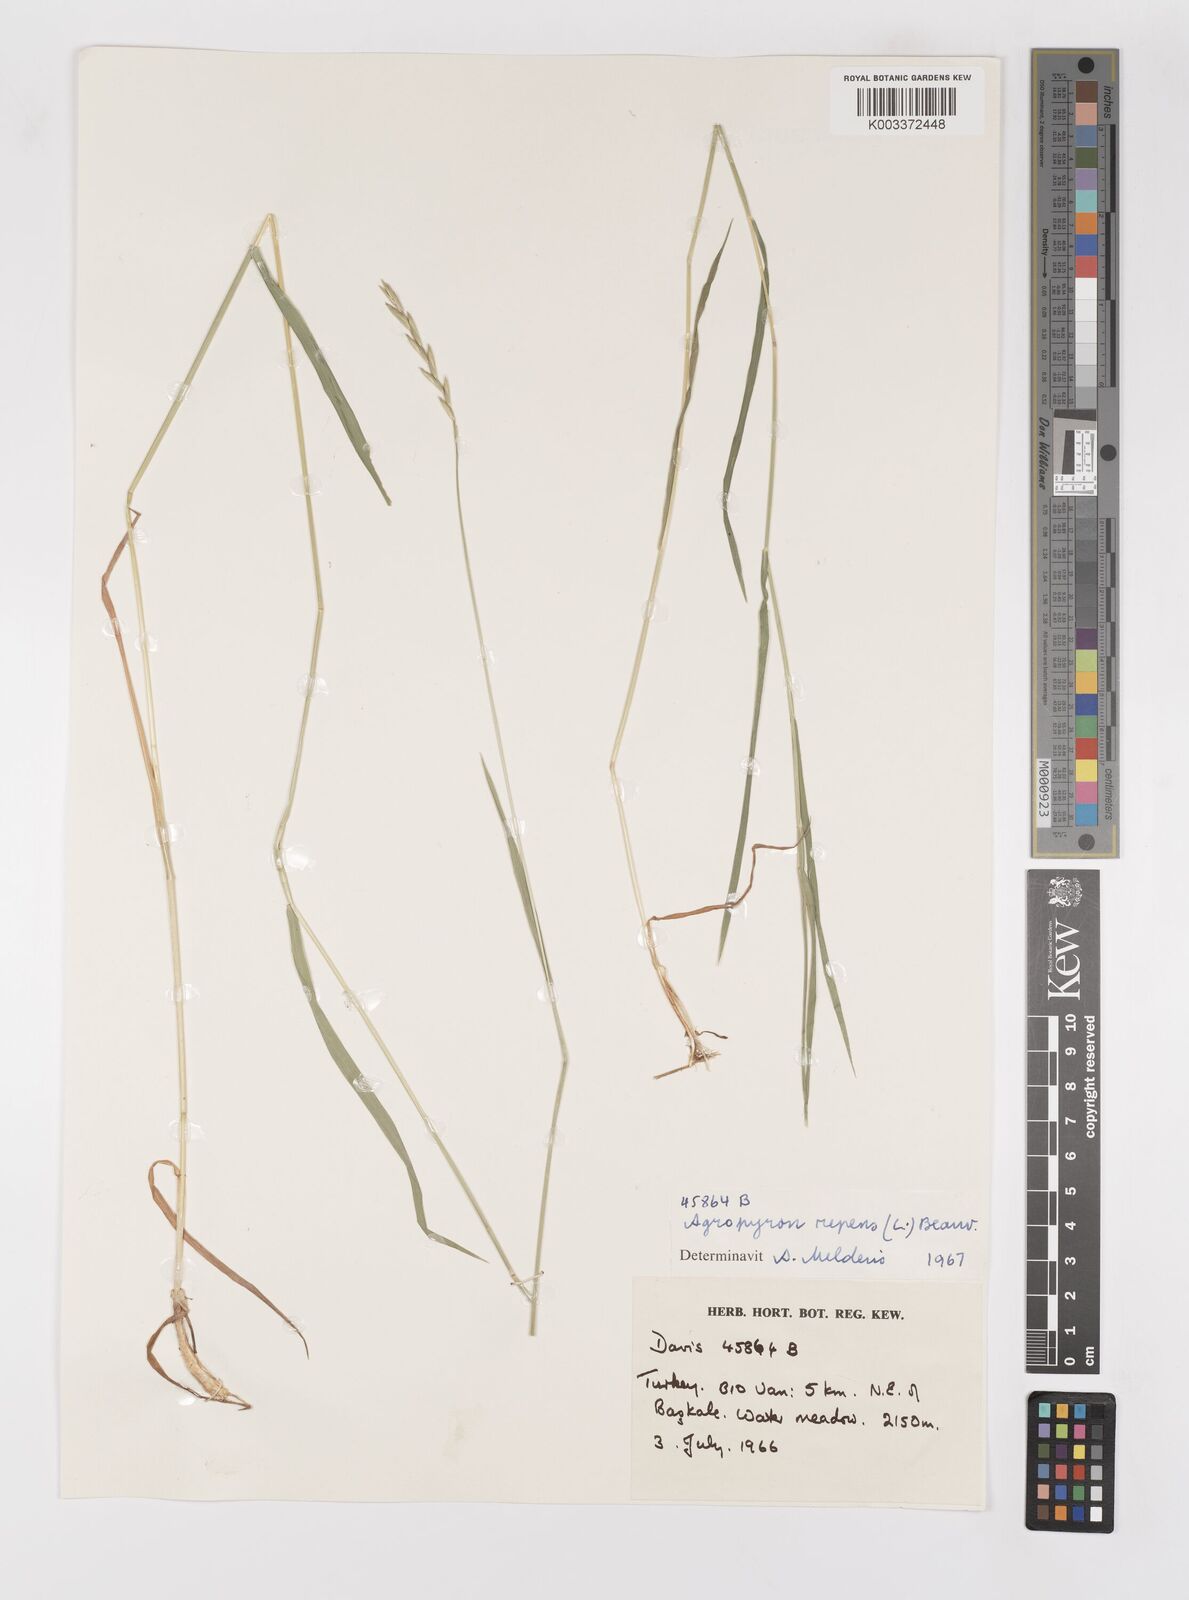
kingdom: Plantae
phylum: Tracheophyta
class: Liliopsida
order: Poales
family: Poaceae
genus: Elymus
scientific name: Elymus repens
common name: Quackgrass
